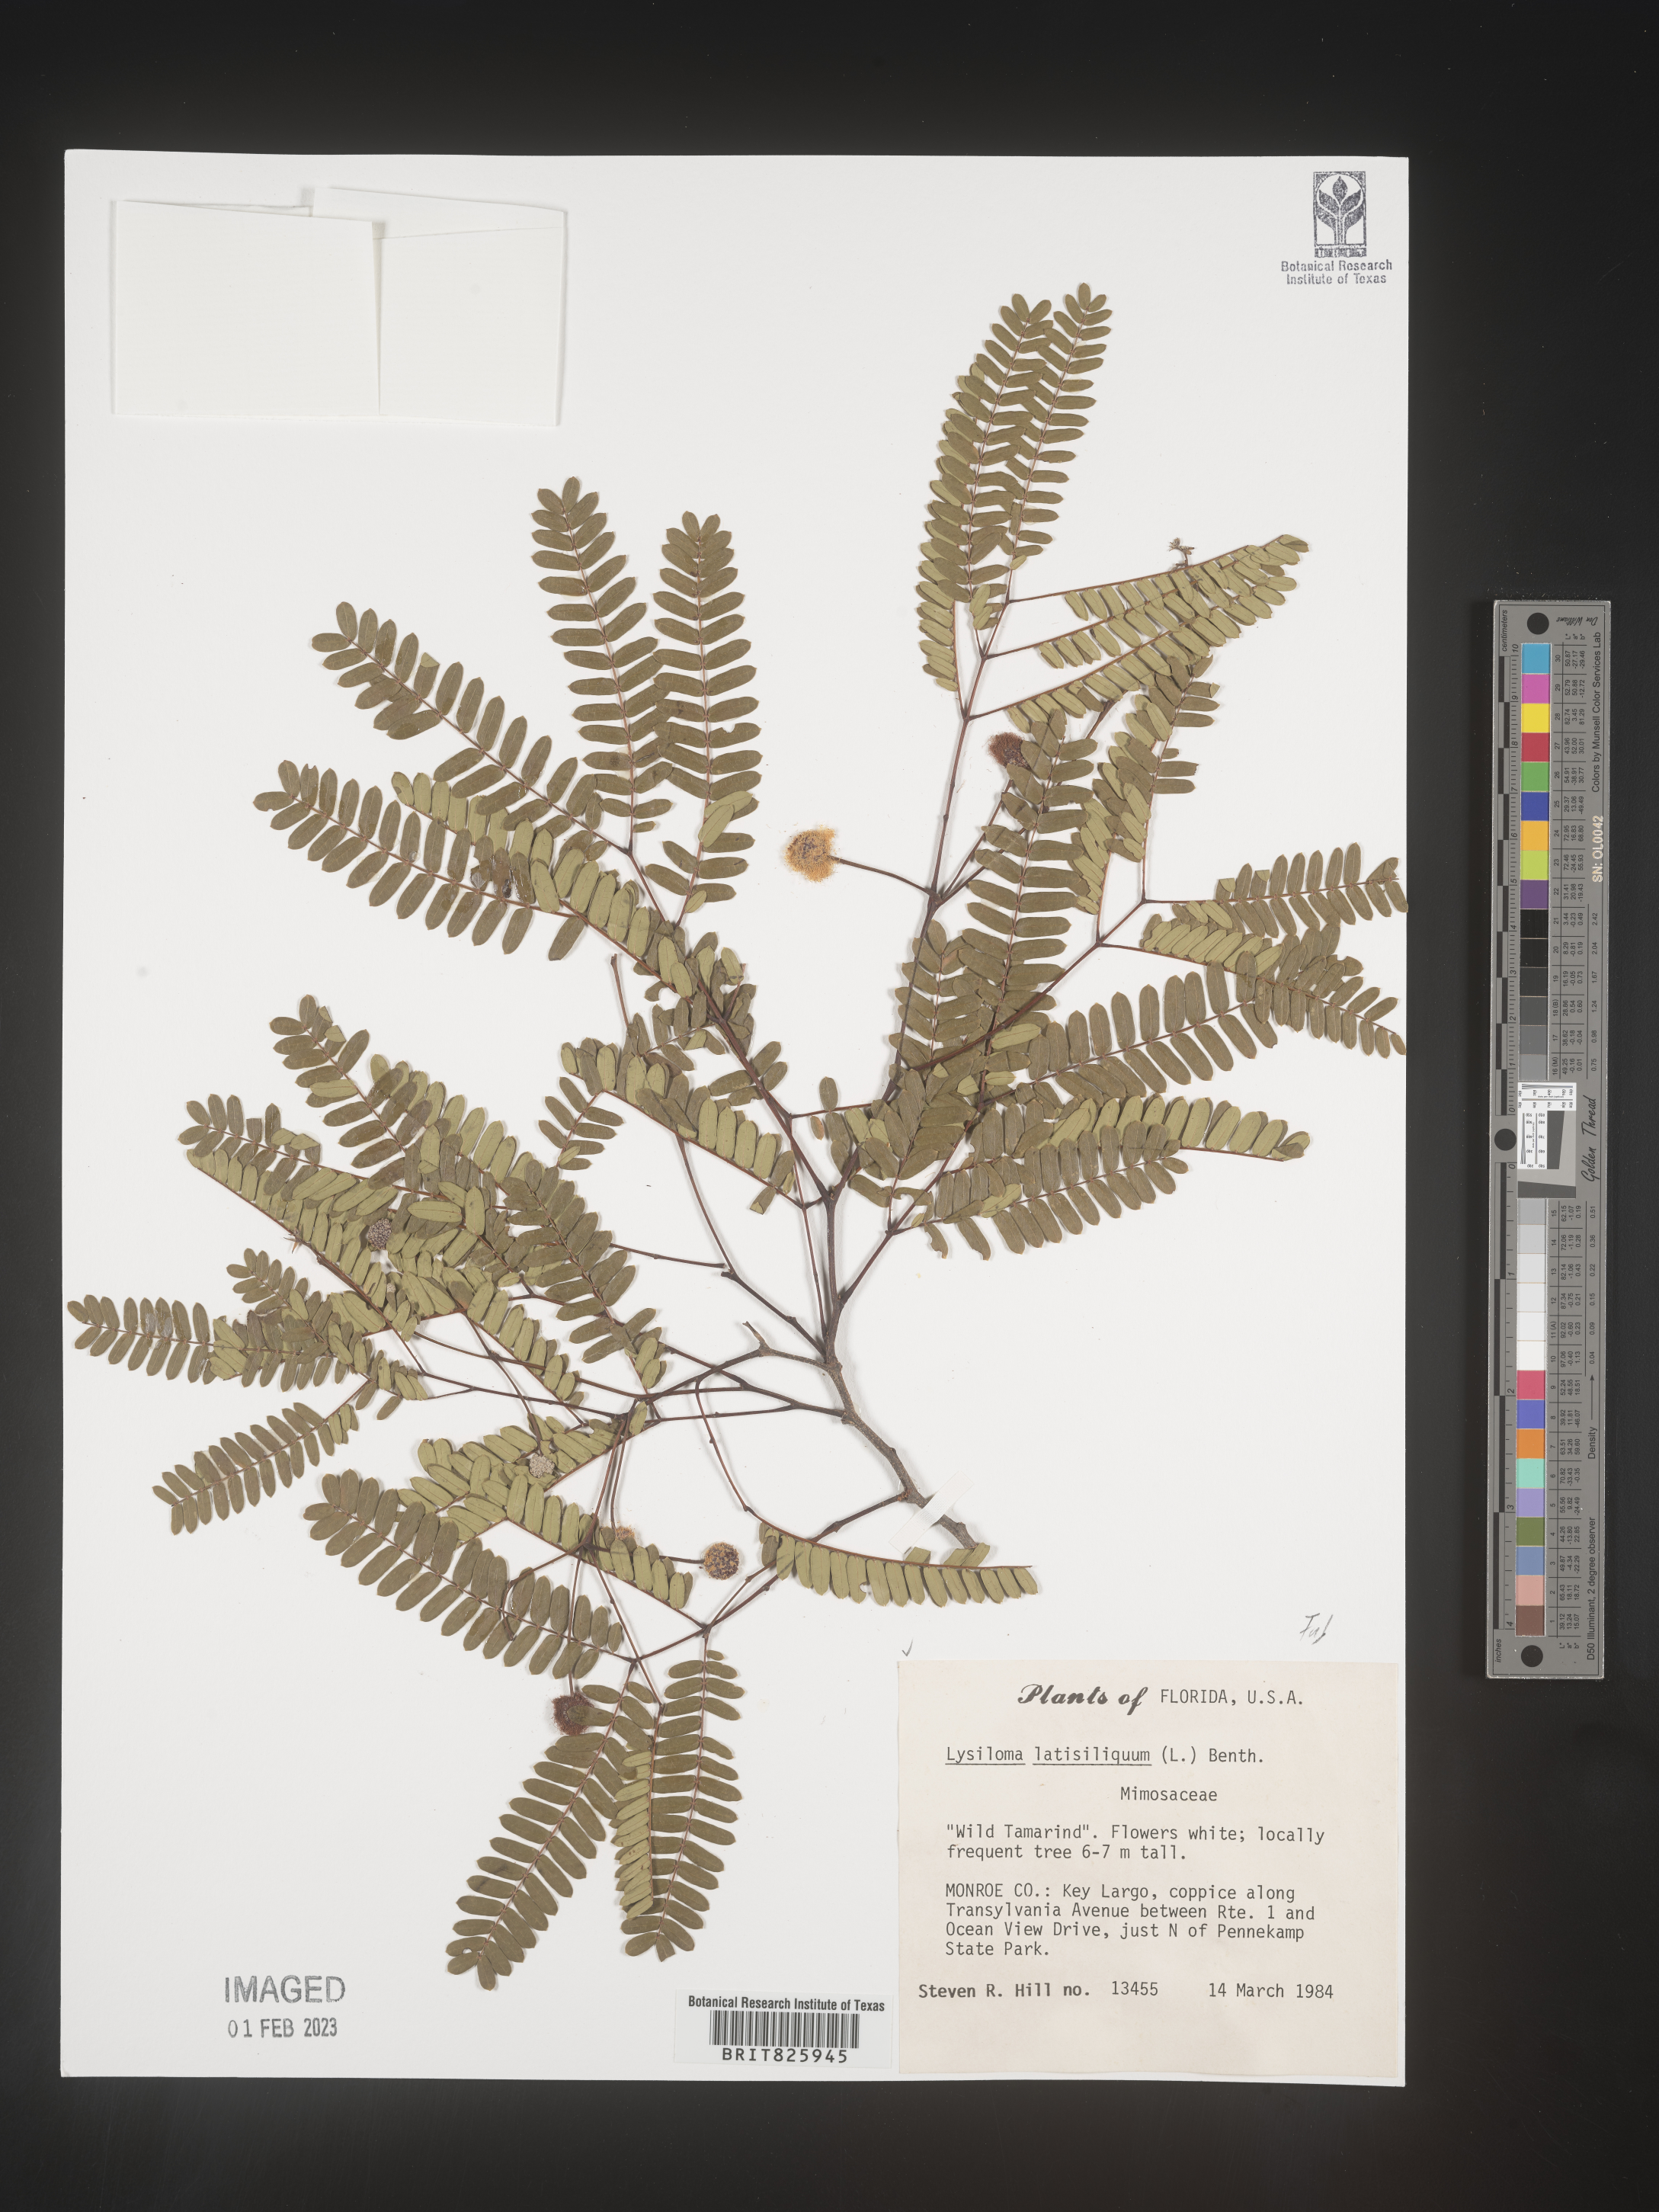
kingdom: Plantae
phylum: Tracheophyta
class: Magnoliopsida
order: Fabales
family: Fabaceae
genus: Lysiloma
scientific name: Lysiloma
